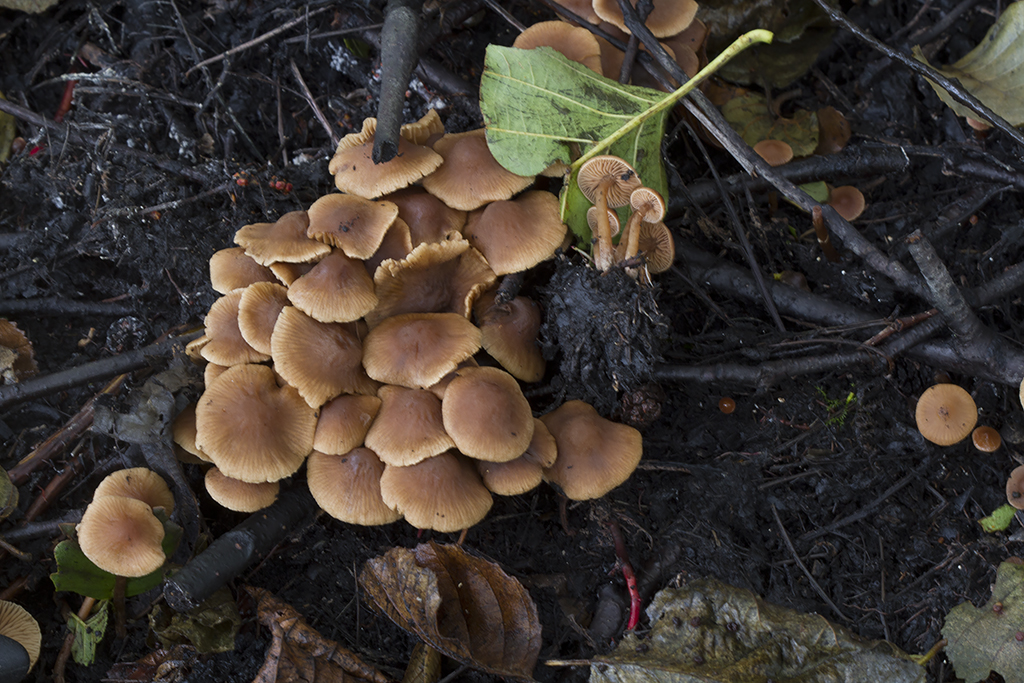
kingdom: Fungi
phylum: Basidiomycota
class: Agaricomycetes
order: Agaricales
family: Hymenogastraceae
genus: Naucoria
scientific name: Naucoria scolecina
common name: mørk elle-knaphat
